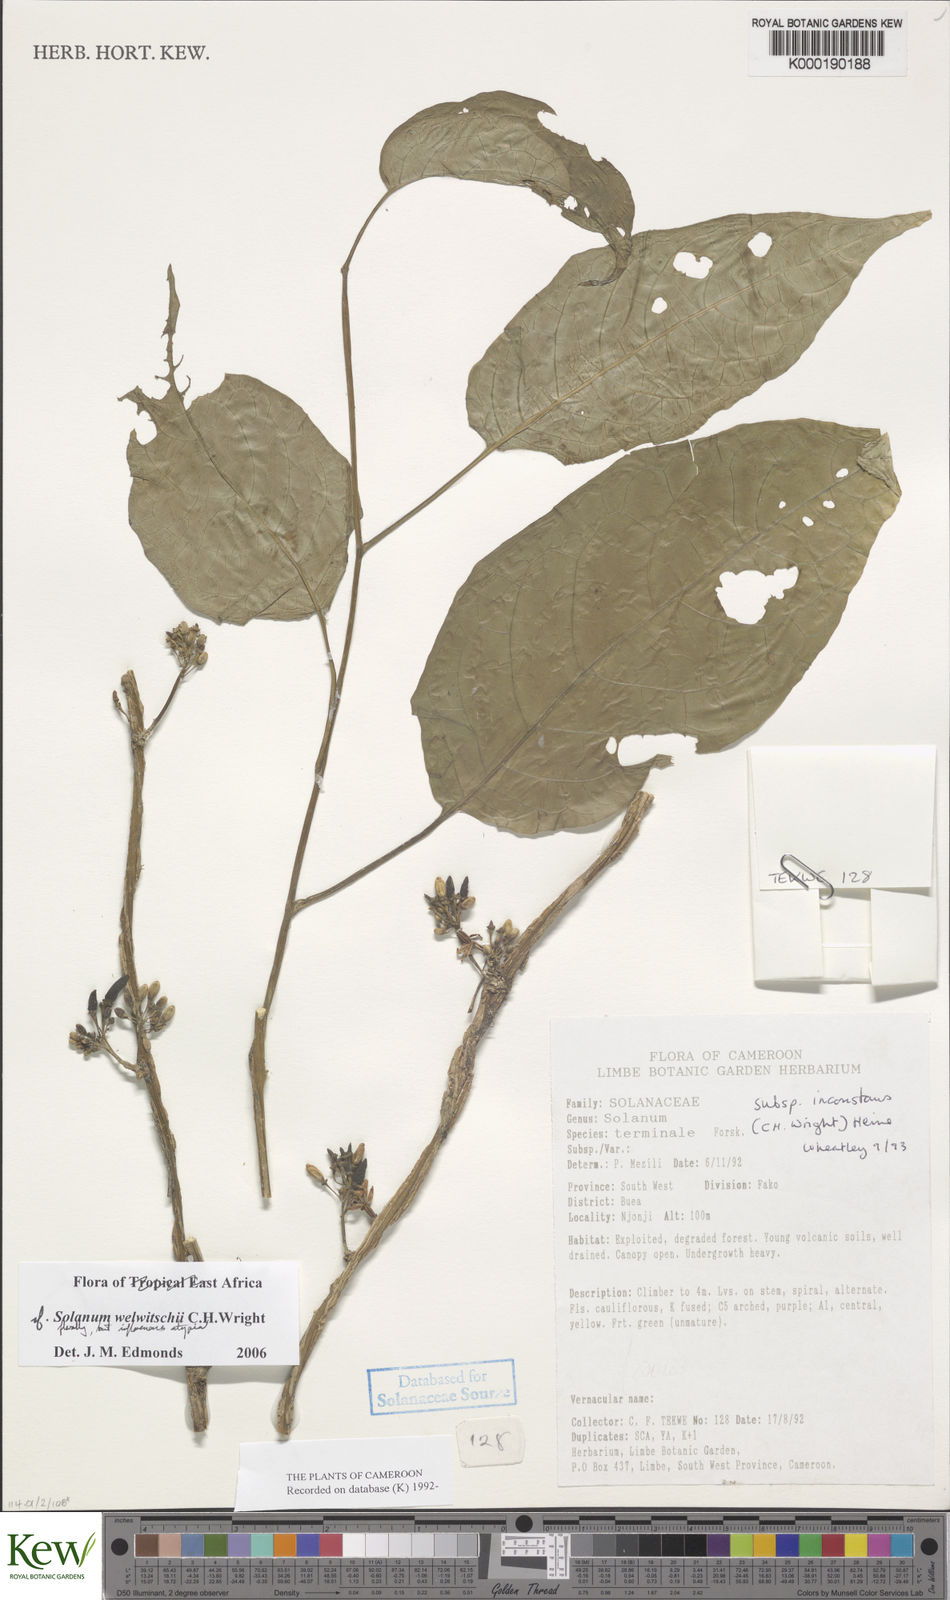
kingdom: Plantae
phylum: Tracheophyta
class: Magnoliopsida
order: Solanales
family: Solanaceae
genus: Solanum
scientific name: Solanum terminale
